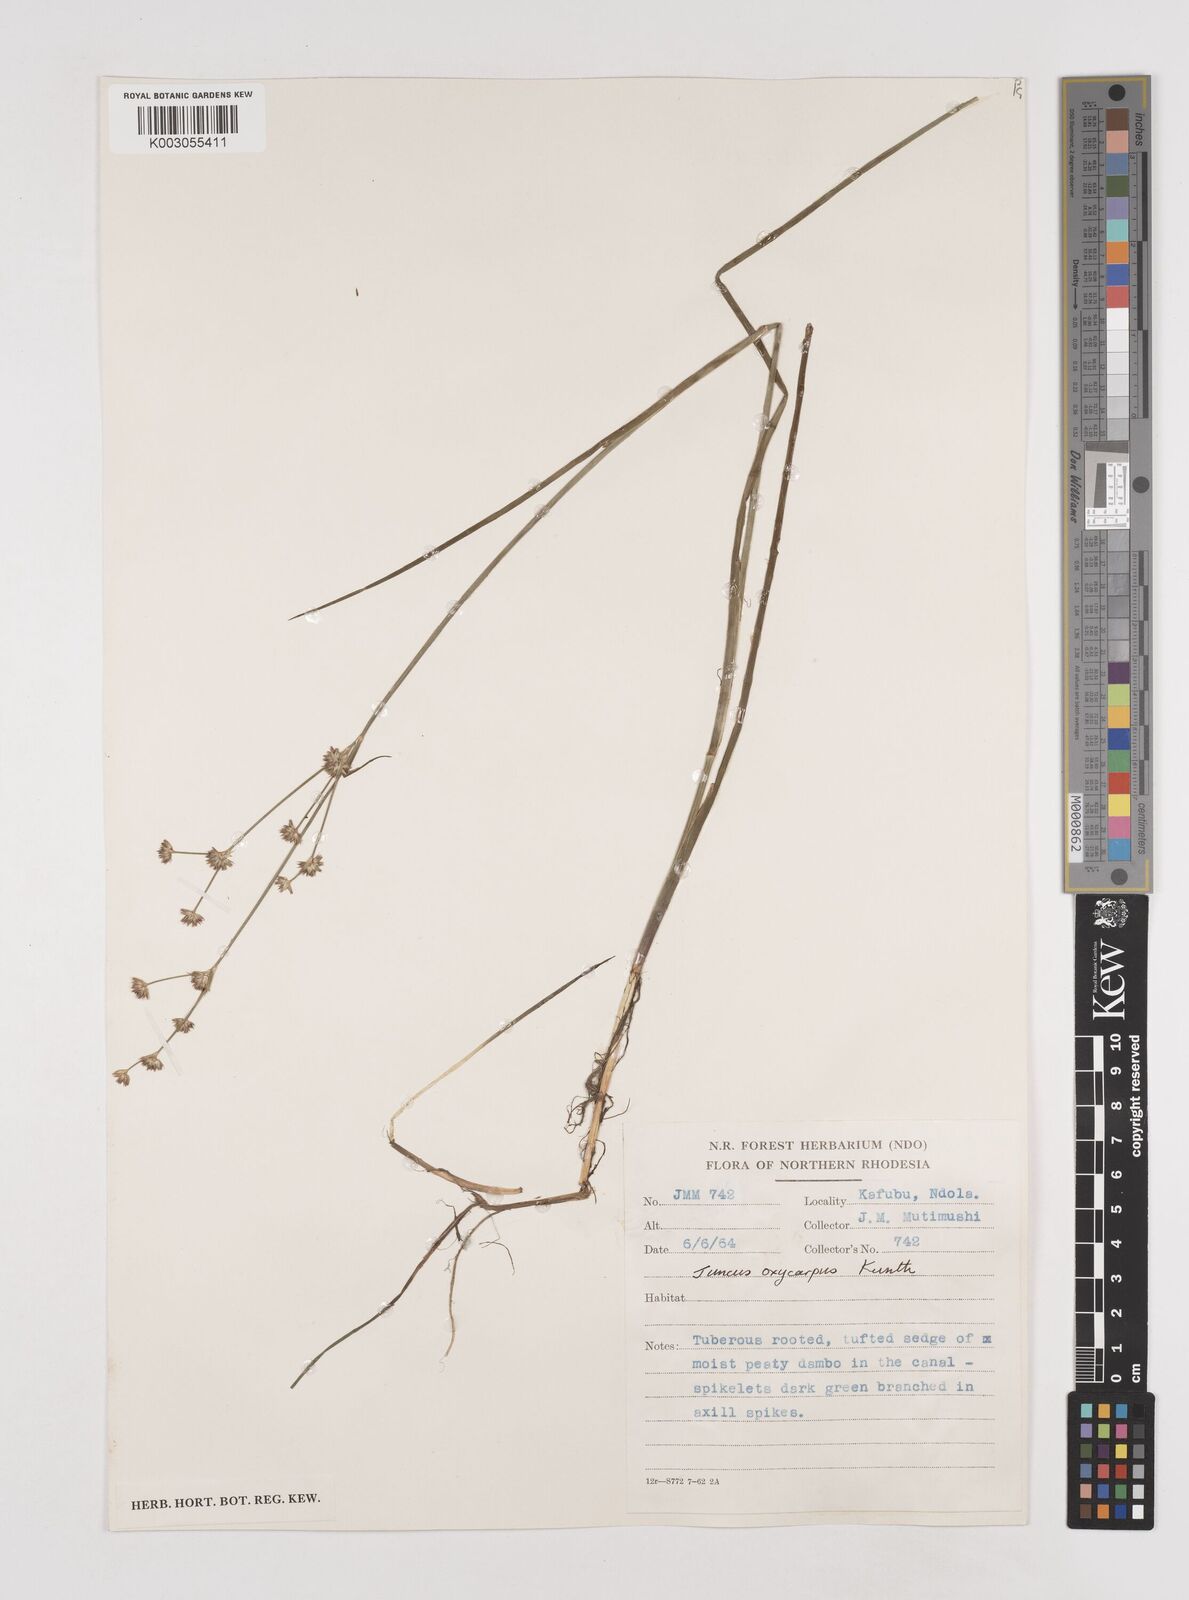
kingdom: Plantae
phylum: Tracheophyta
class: Liliopsida
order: Poales
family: Juncaceae
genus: Juncus
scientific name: Juncus oxycarpus
